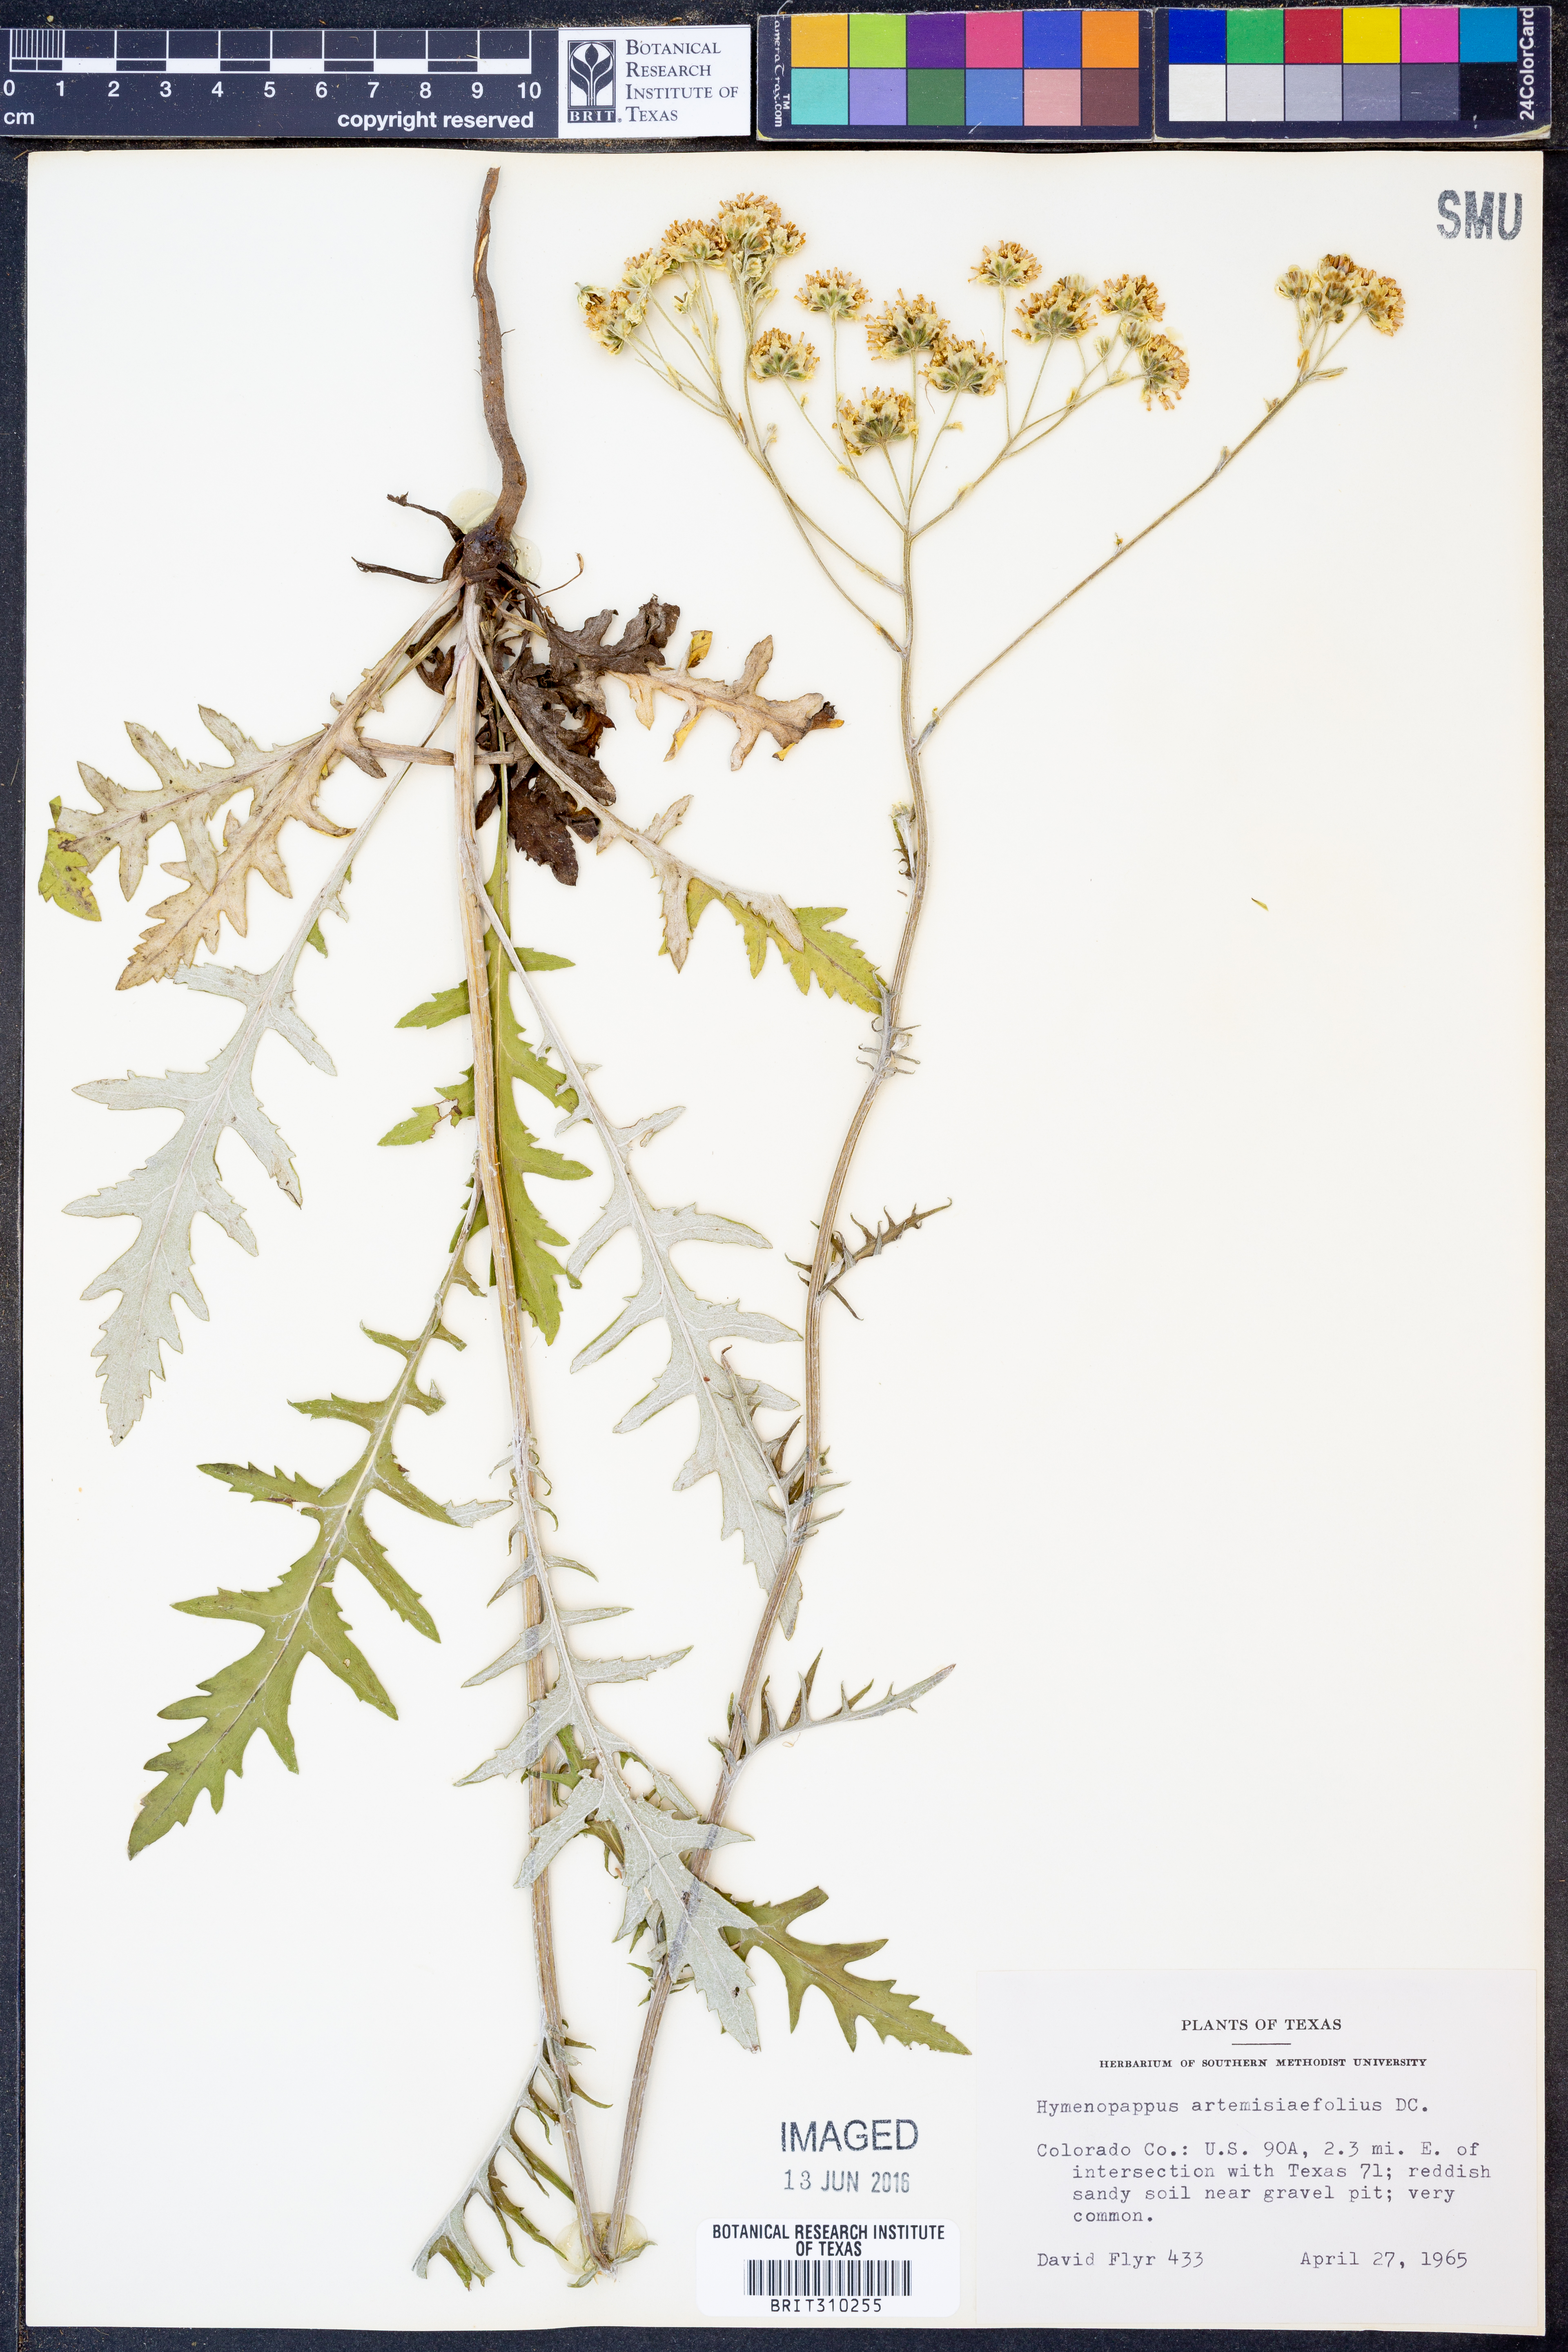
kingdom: Plantae
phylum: Tracheophyta
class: Magnoliopsida
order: Asterales
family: Asteraceae
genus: Hymenopappus
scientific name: Hymenopappus artemisiifolius
